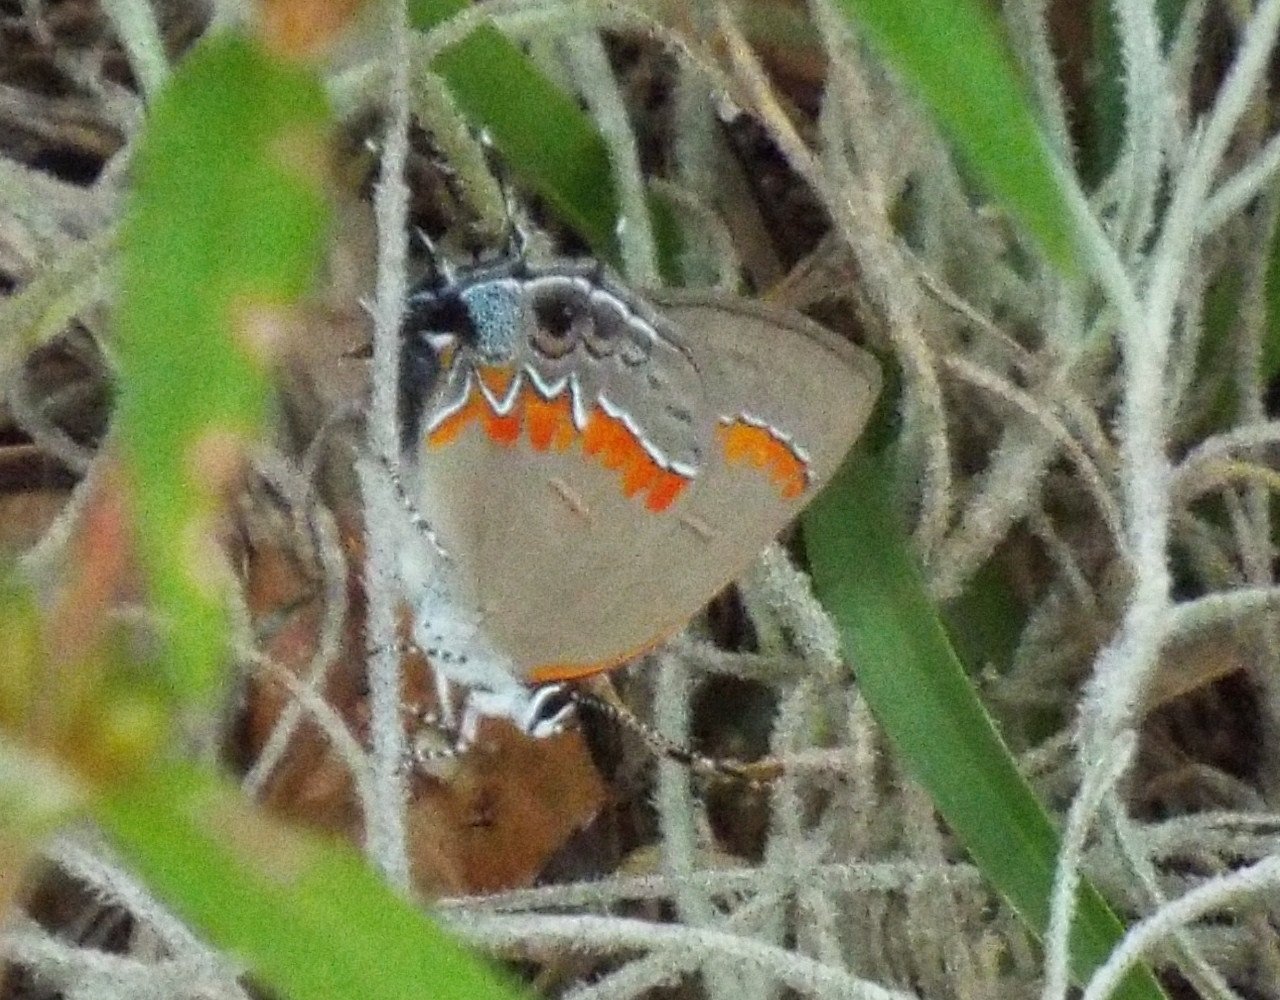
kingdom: Animalia
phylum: Arthropoda
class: Insecta
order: Lepidoptera
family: Lycaenidae
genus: Calycopis
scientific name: Calycopis cecrops
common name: Red-banded Hairstreak
